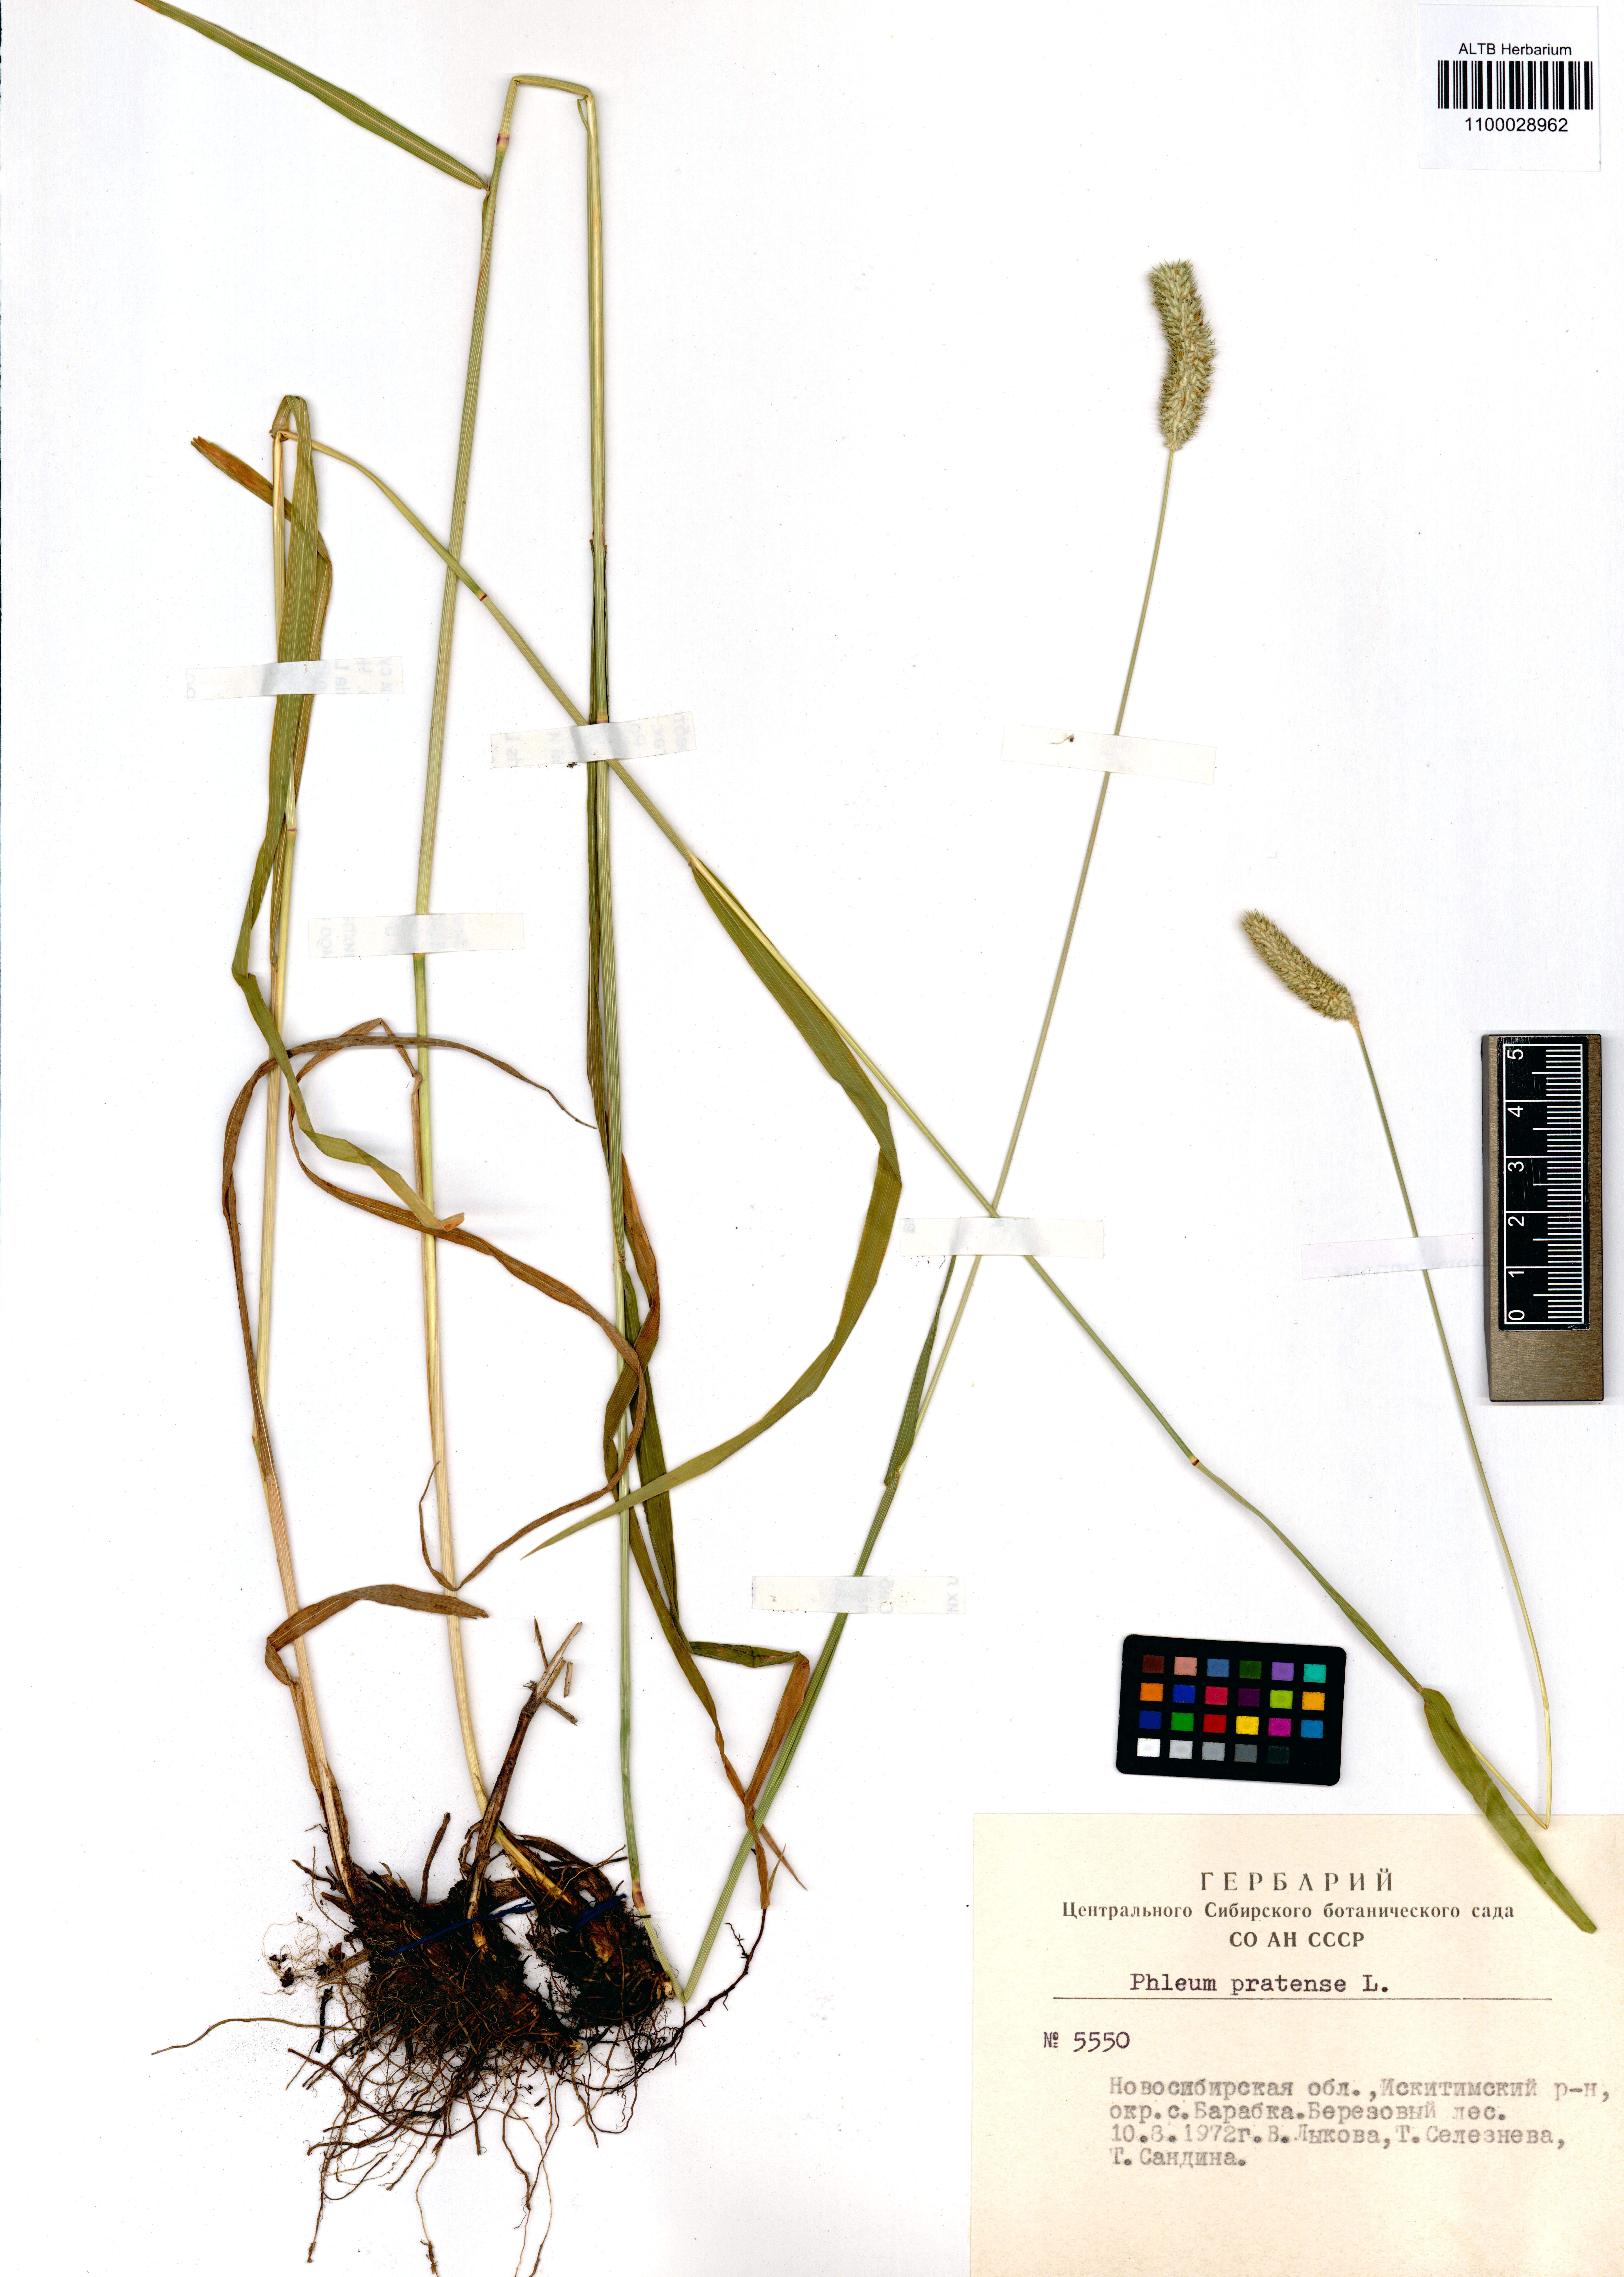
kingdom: Plantae
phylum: Tracheophyta
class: Liliopsida
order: Poales
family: Poaceae
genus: Phleum
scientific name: Phleum pratense
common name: Timothy grass
